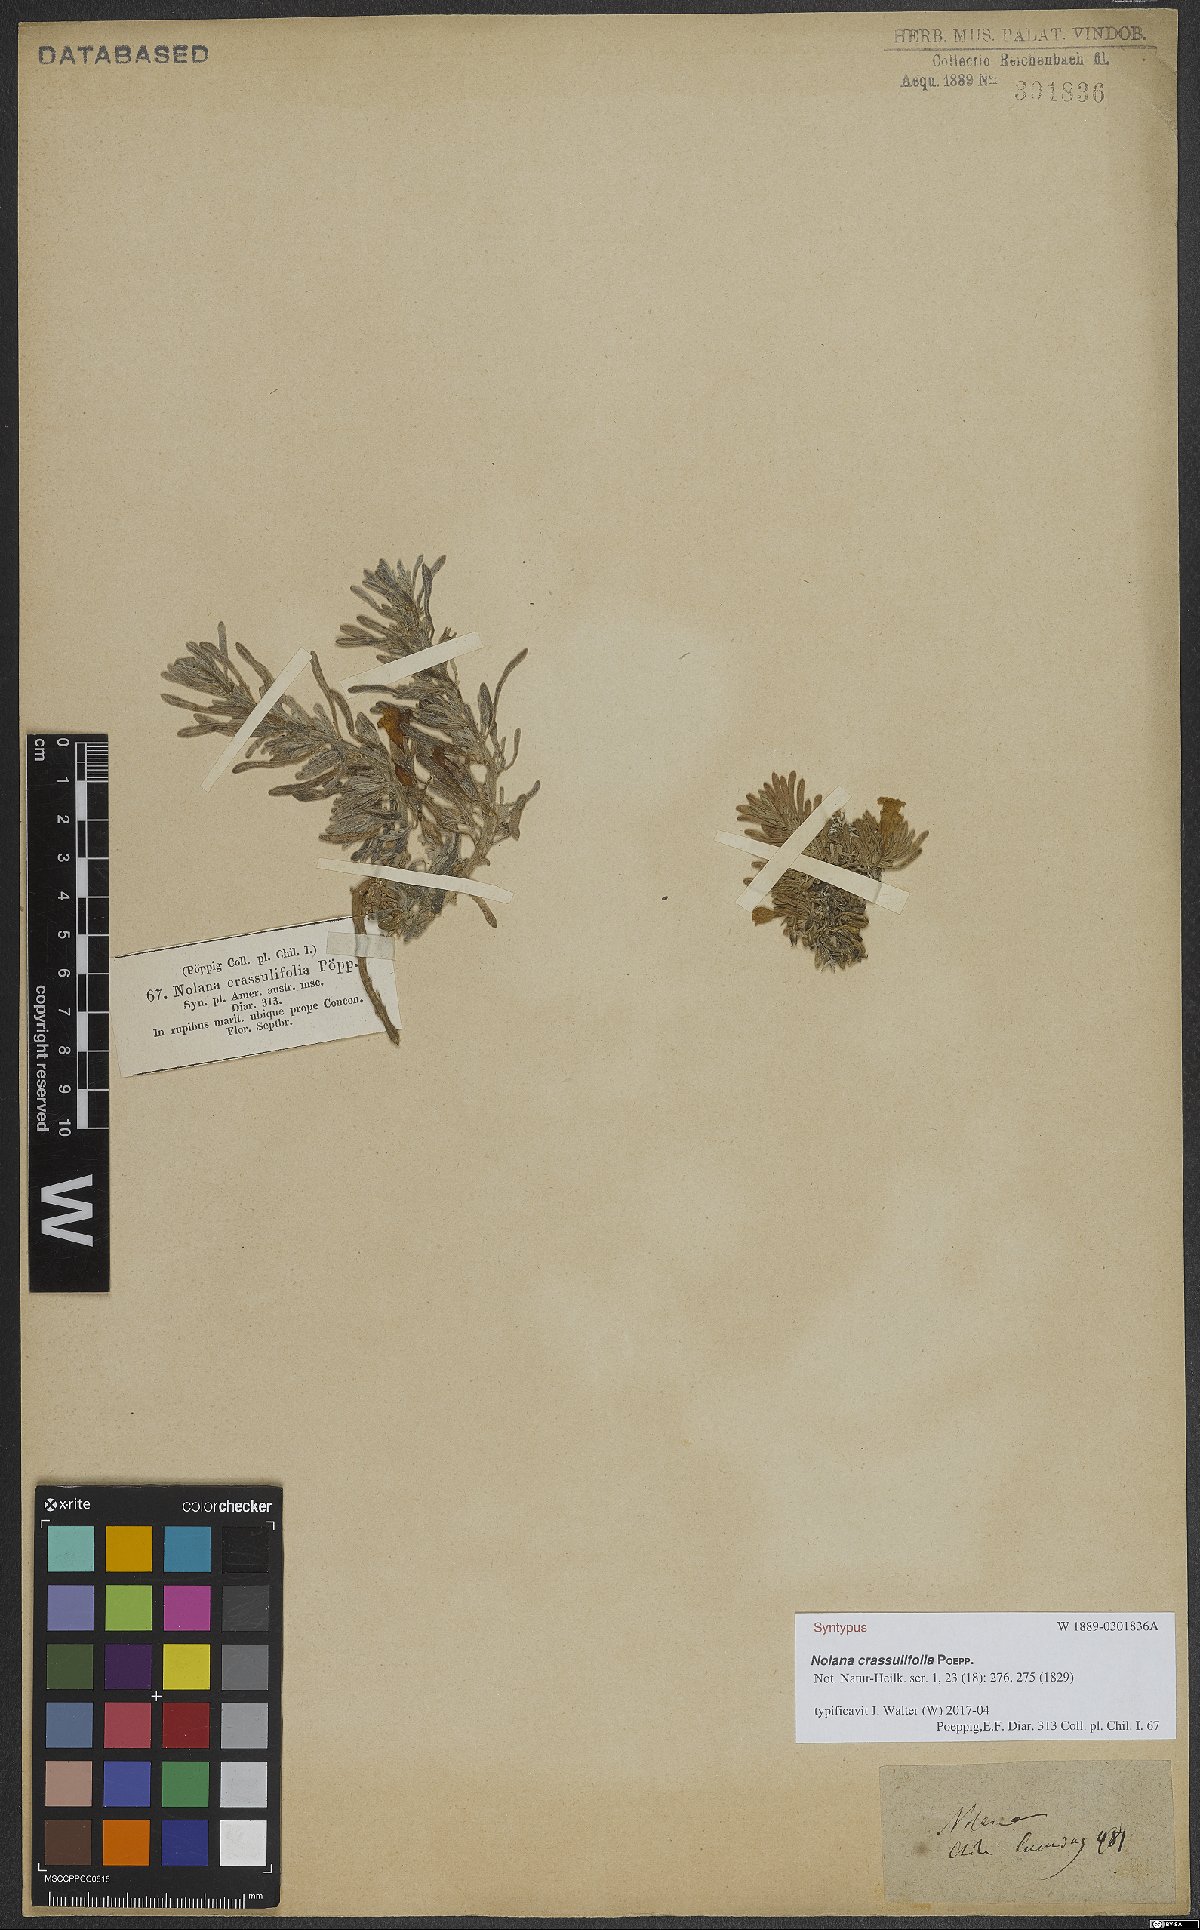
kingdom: Plantae
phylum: Tracheophyta
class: Magnoliopsida
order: Solanales
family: Solanaceae
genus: Nolana
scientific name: Nolana crassulifolia
